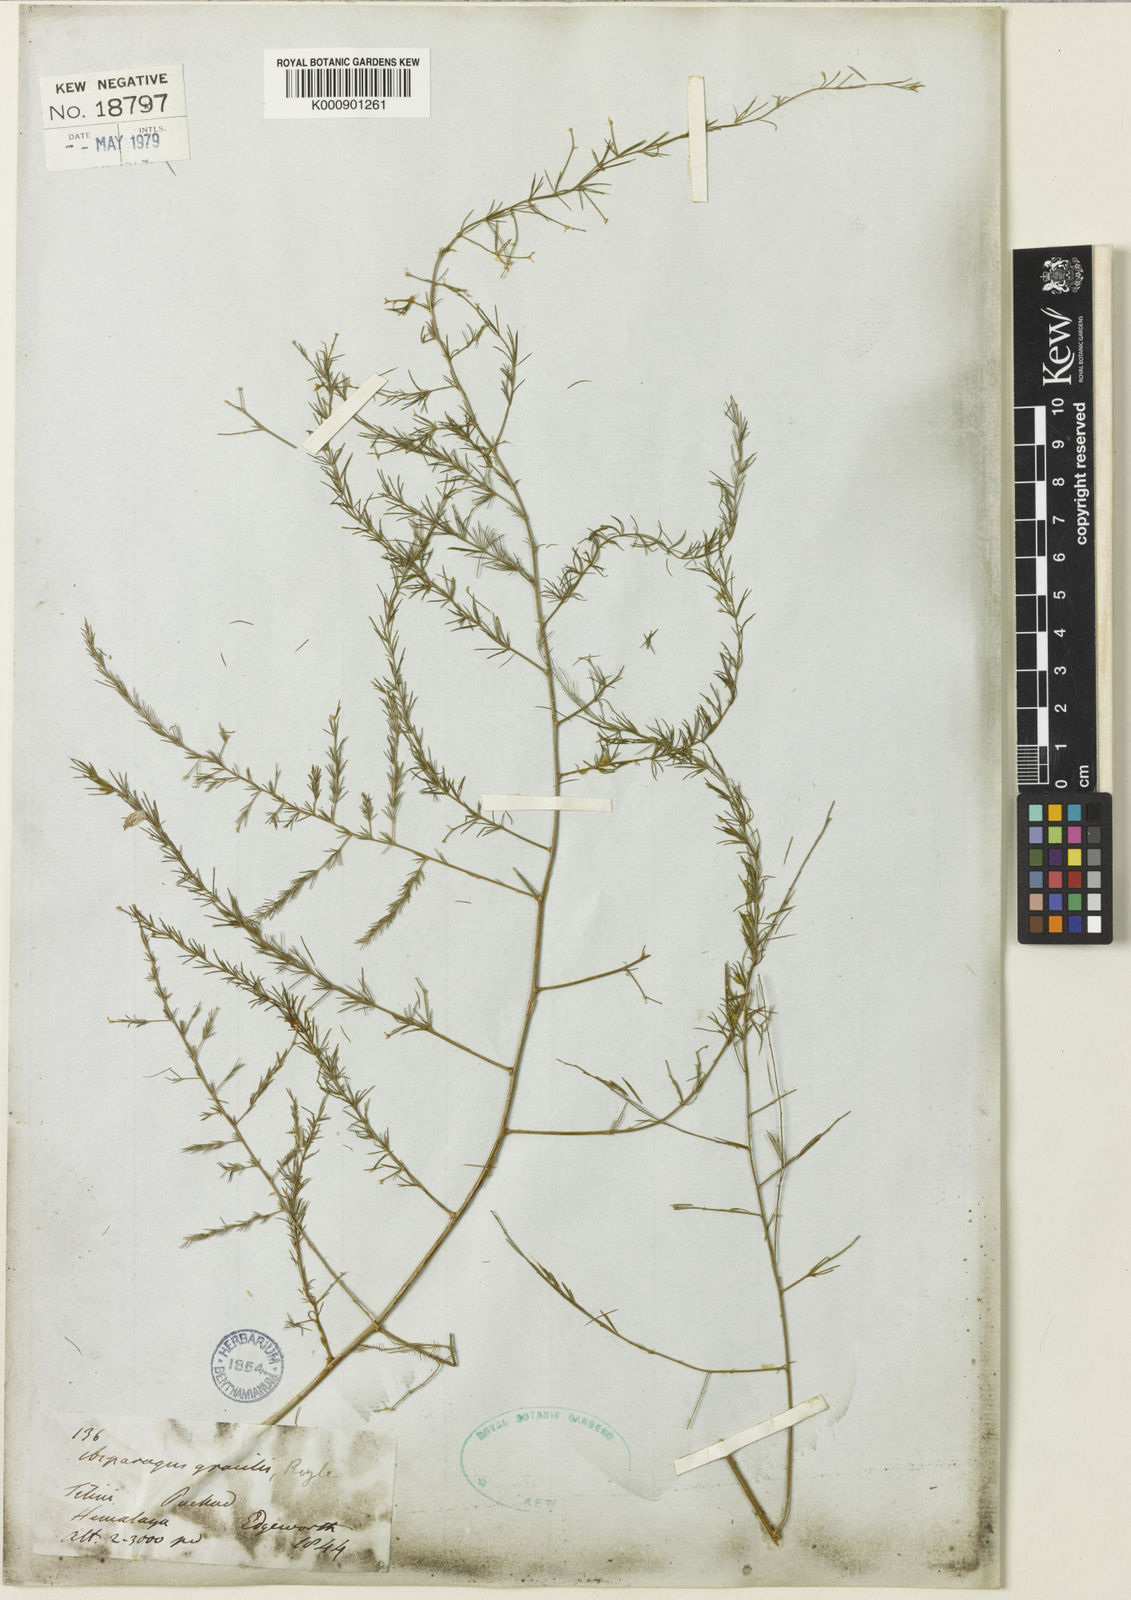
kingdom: Plantae
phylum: Tracheophyta
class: Liliopsida
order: Asparagales
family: Asparagaceae
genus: Asparagus
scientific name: Asparagus
